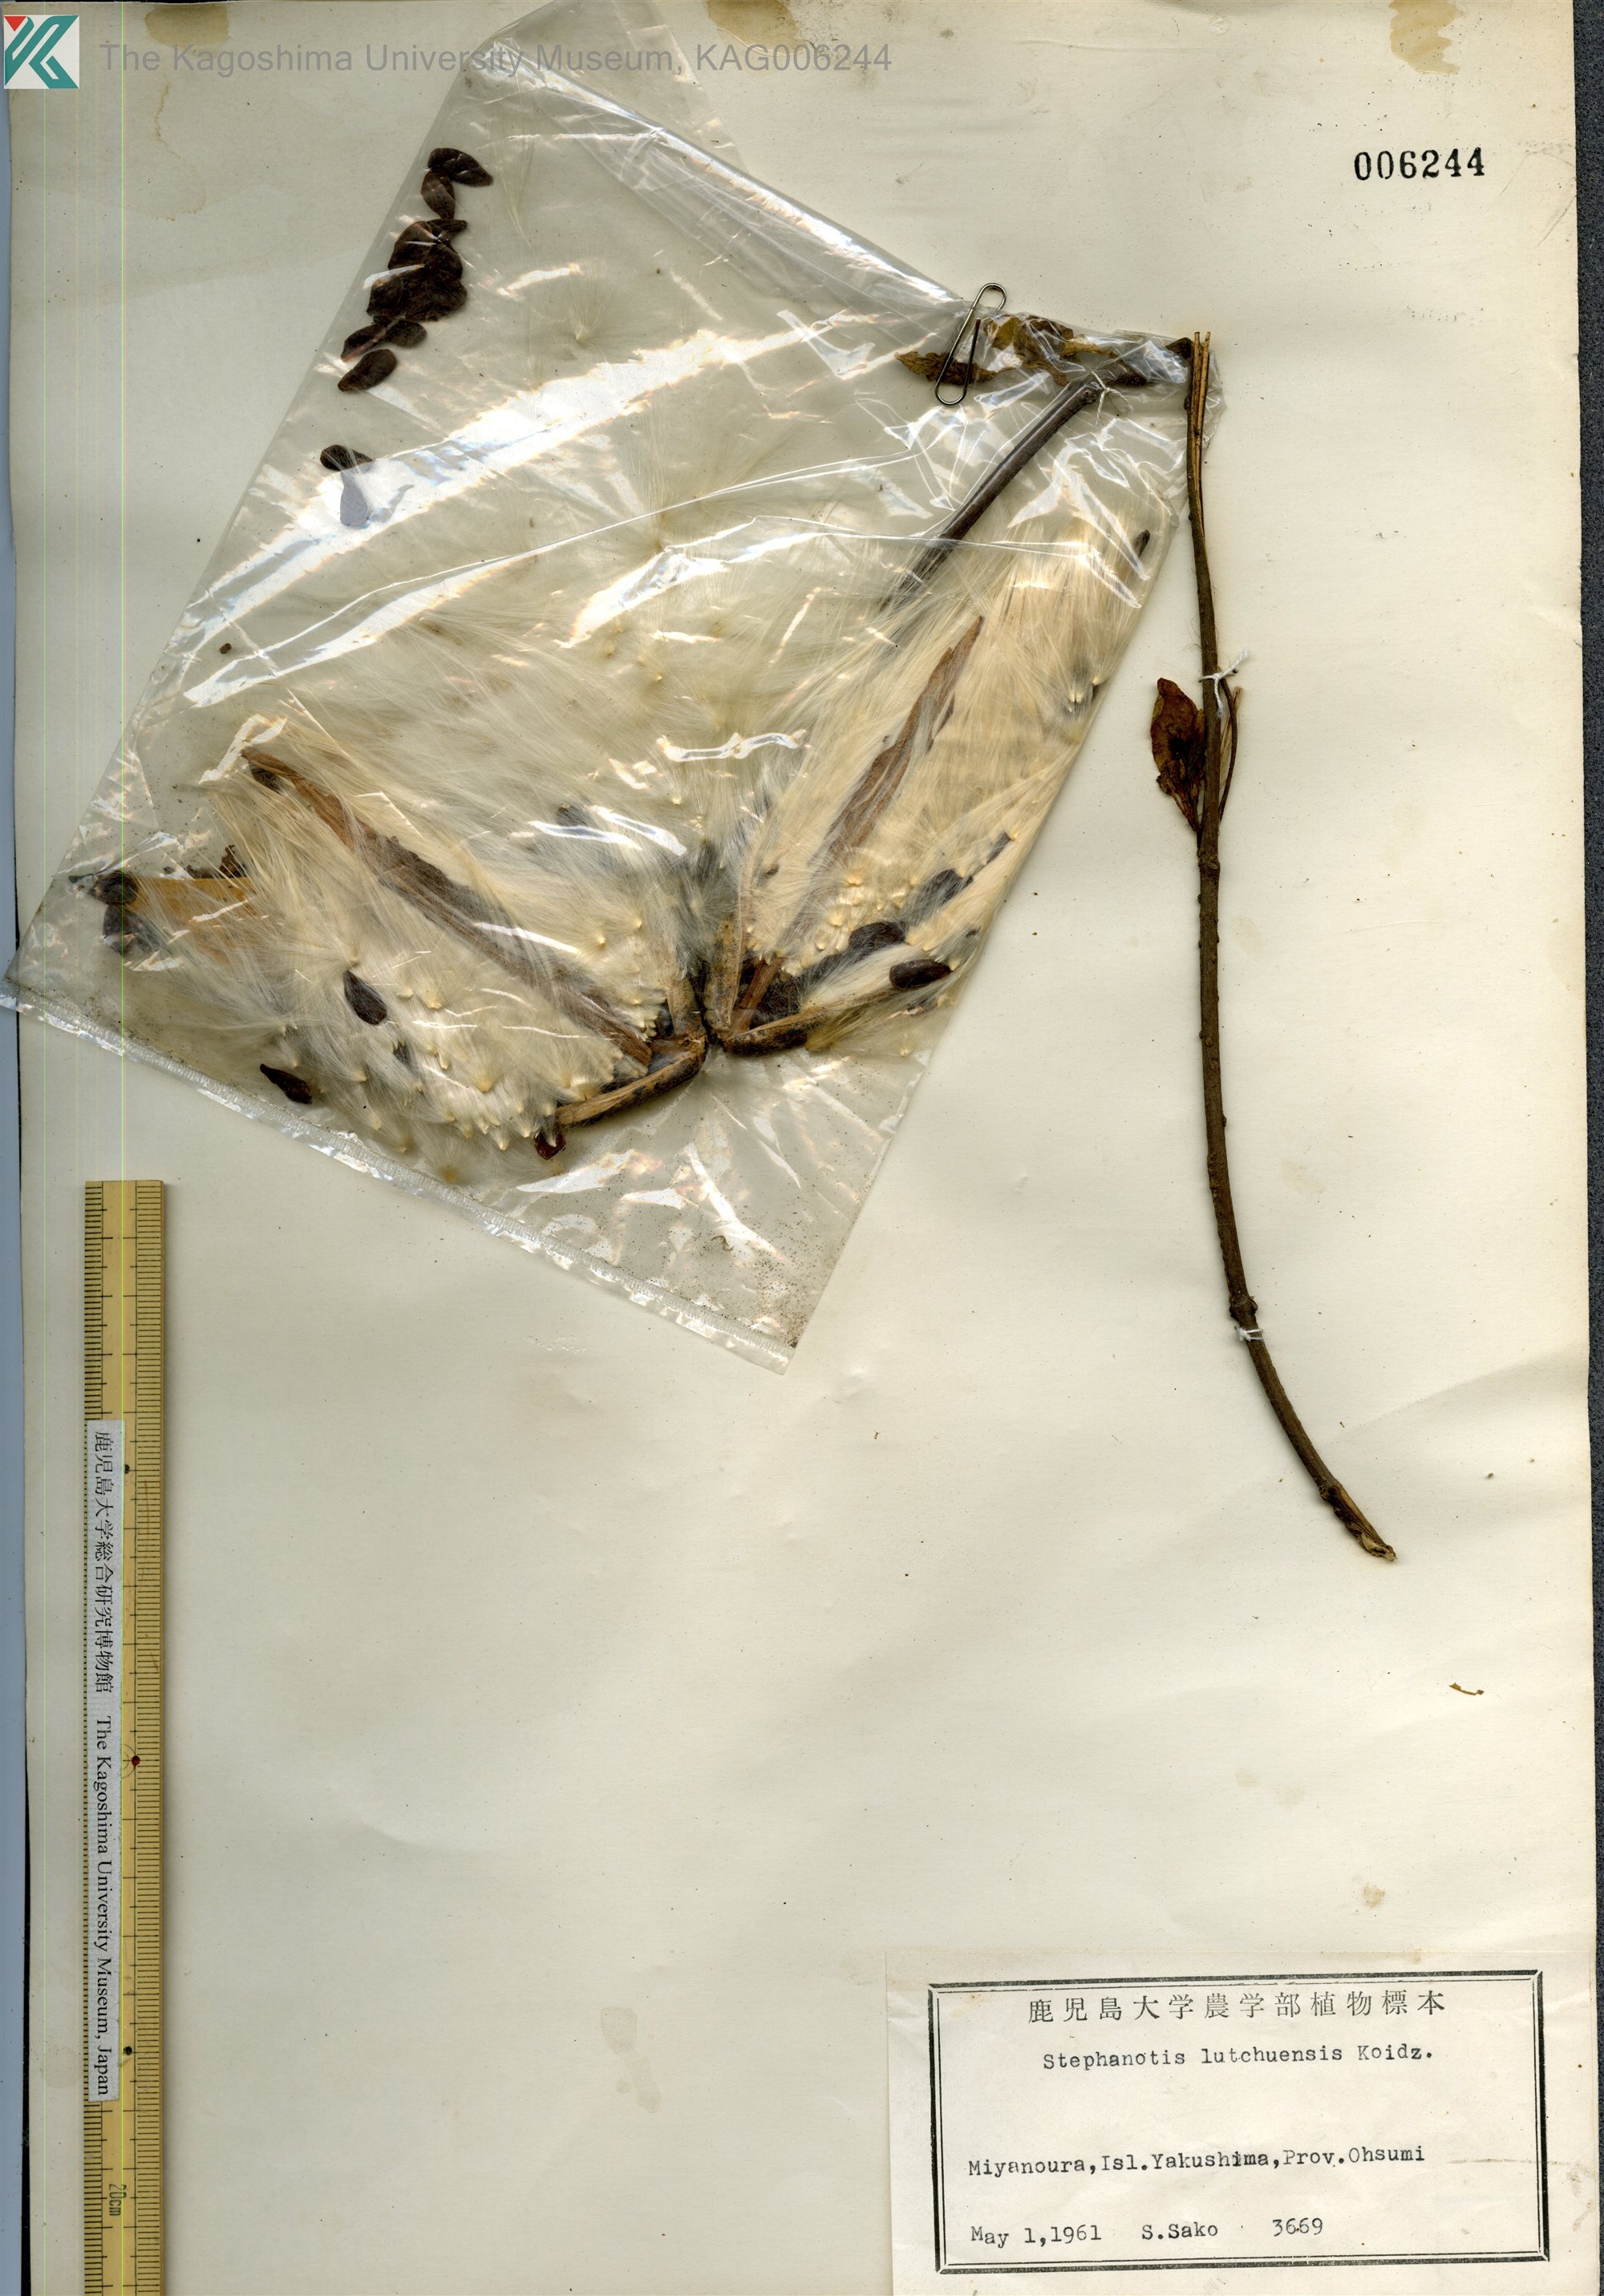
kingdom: Plantae
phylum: Tracheophyta
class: Magnoliopsida
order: Gentianales
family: Apocynaceae
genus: Jasminanthes
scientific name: Jasminanthes mucronata
